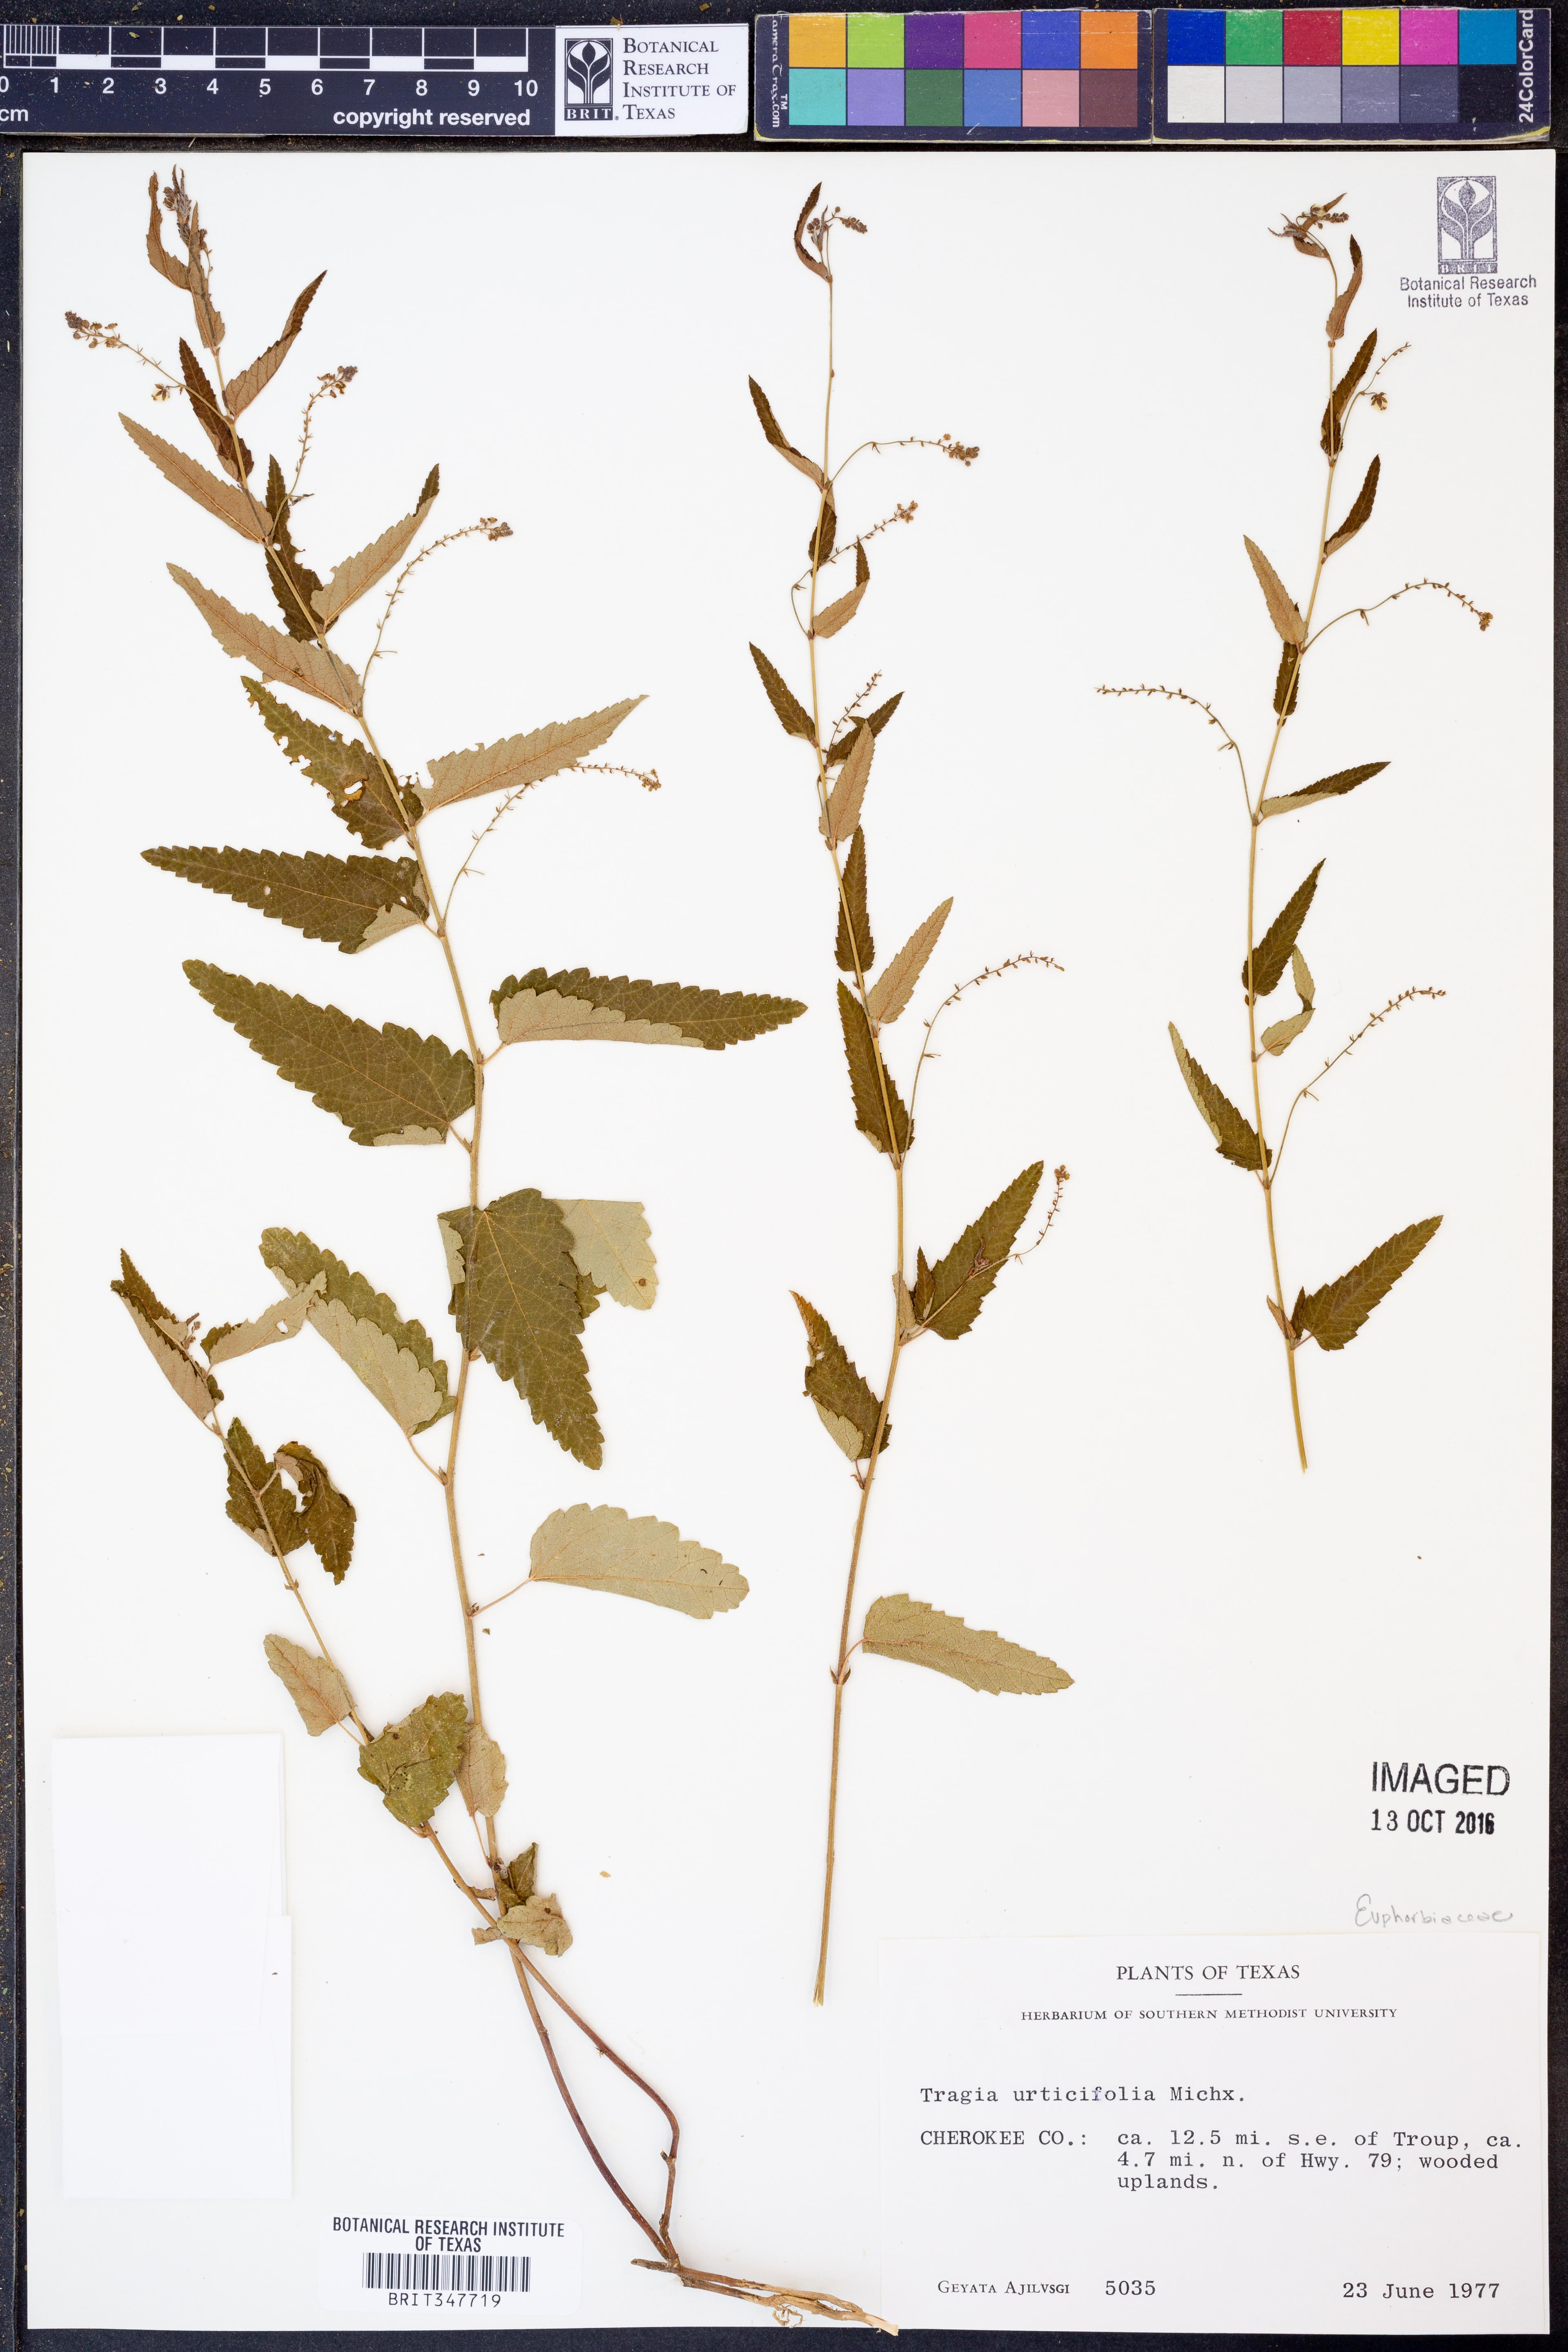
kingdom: Plantae
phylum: Tracheophyta
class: Magnoliopsida
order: Malpighiales
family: Euphorbiaceae
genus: Tragia
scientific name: Tragia urticifolia
